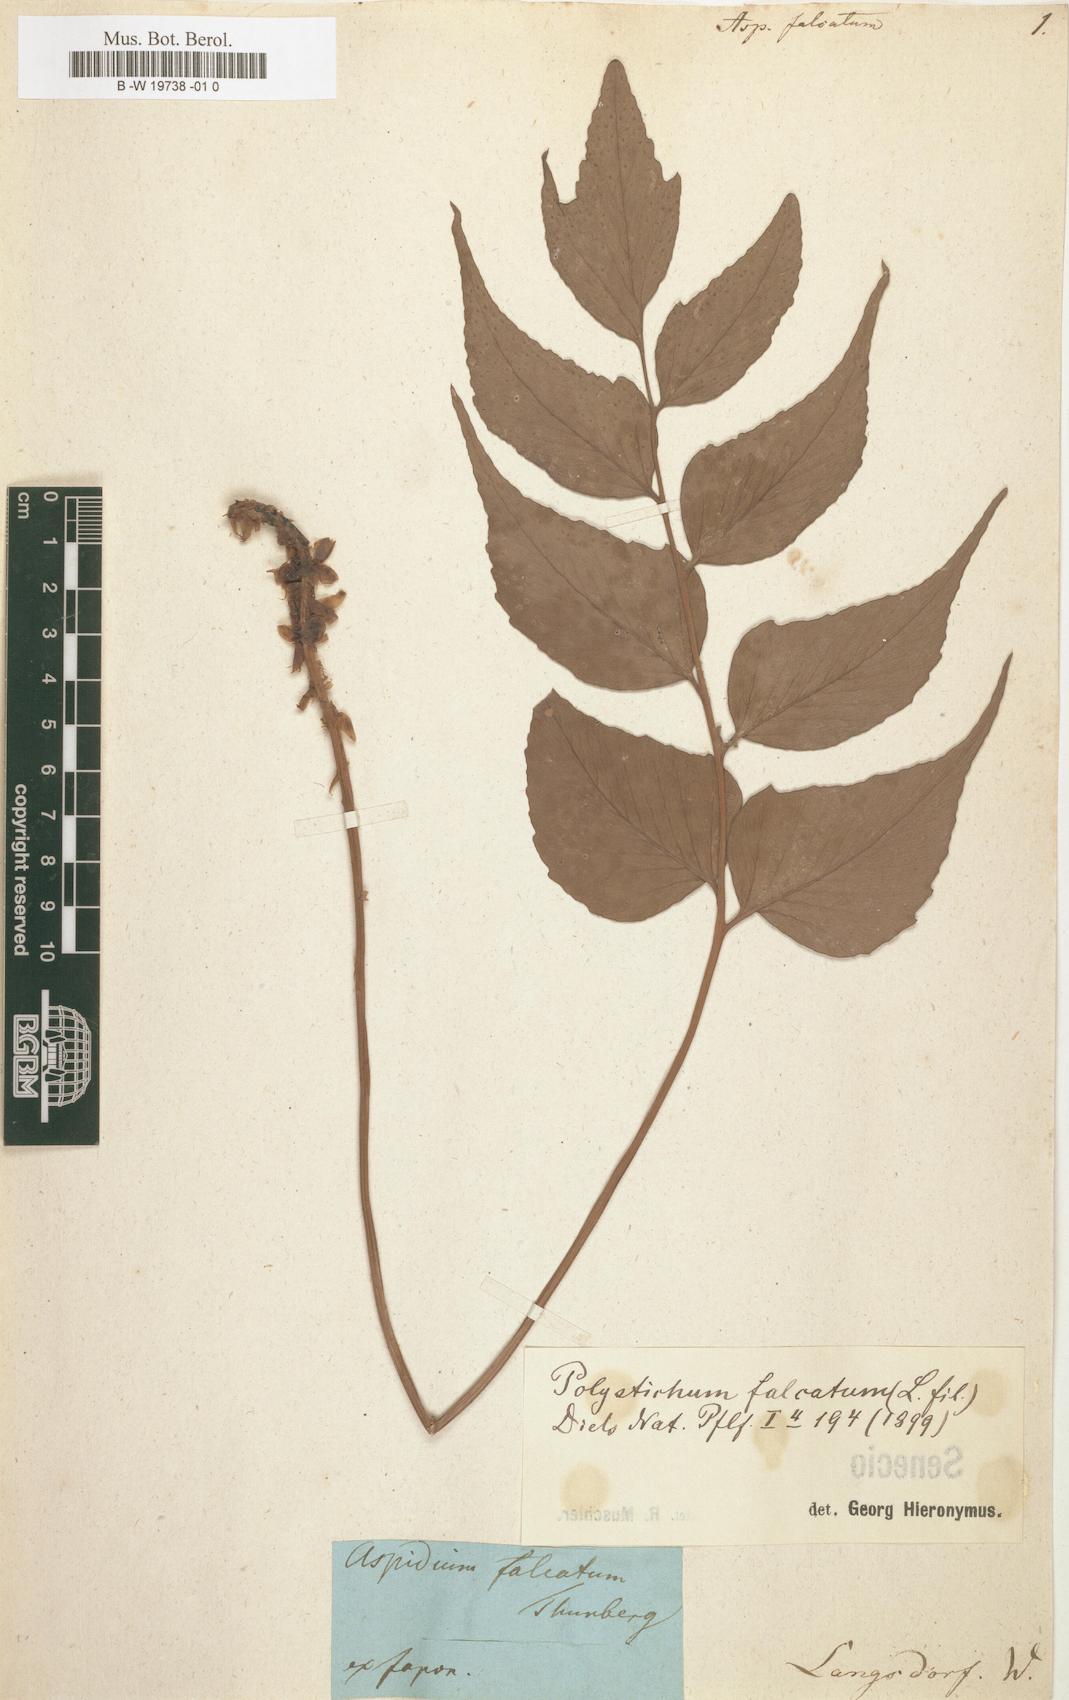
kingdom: Plantae
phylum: Tracheophyta
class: Polypodiopsida
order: Polypodiales
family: Dryopteridaceae
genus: Cyrtomium
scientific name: Cyrtomium
